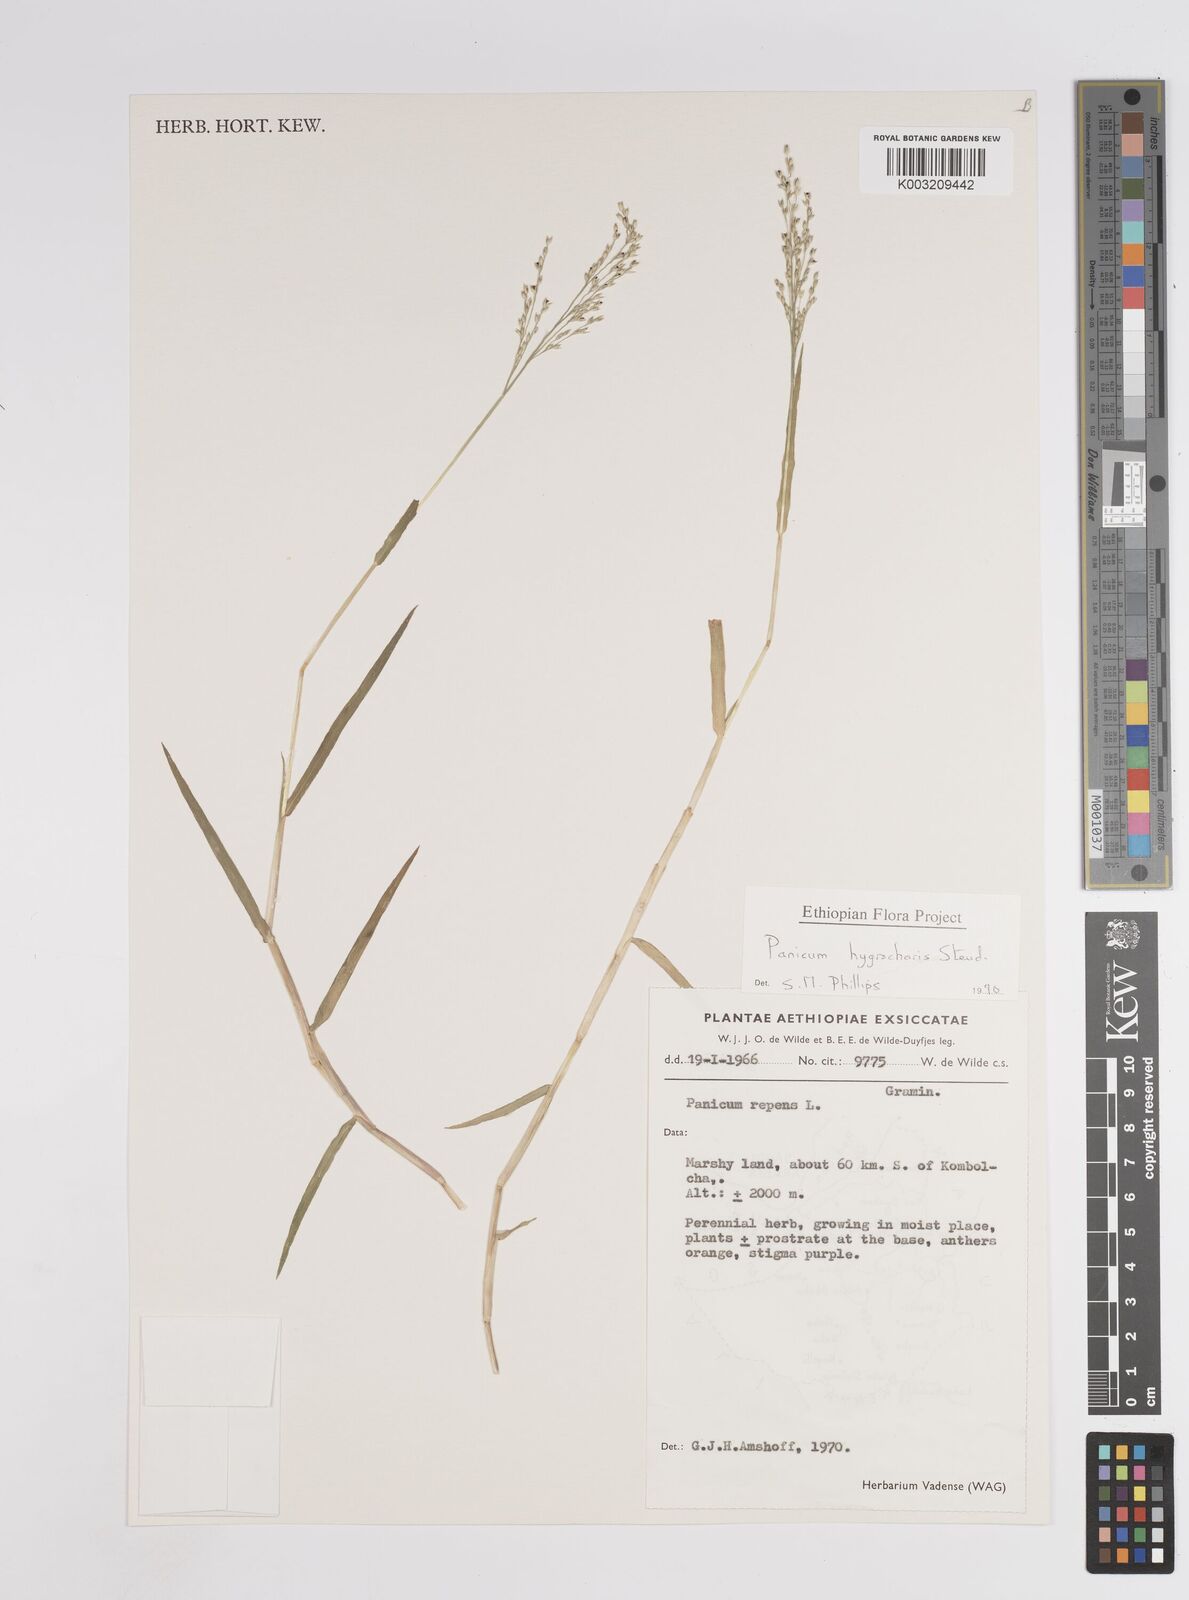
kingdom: Plantae
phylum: Tracheophyta
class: Liliopsida
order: Poales
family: Poaceae
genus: Panicum
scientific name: Panicum hygrocharis
